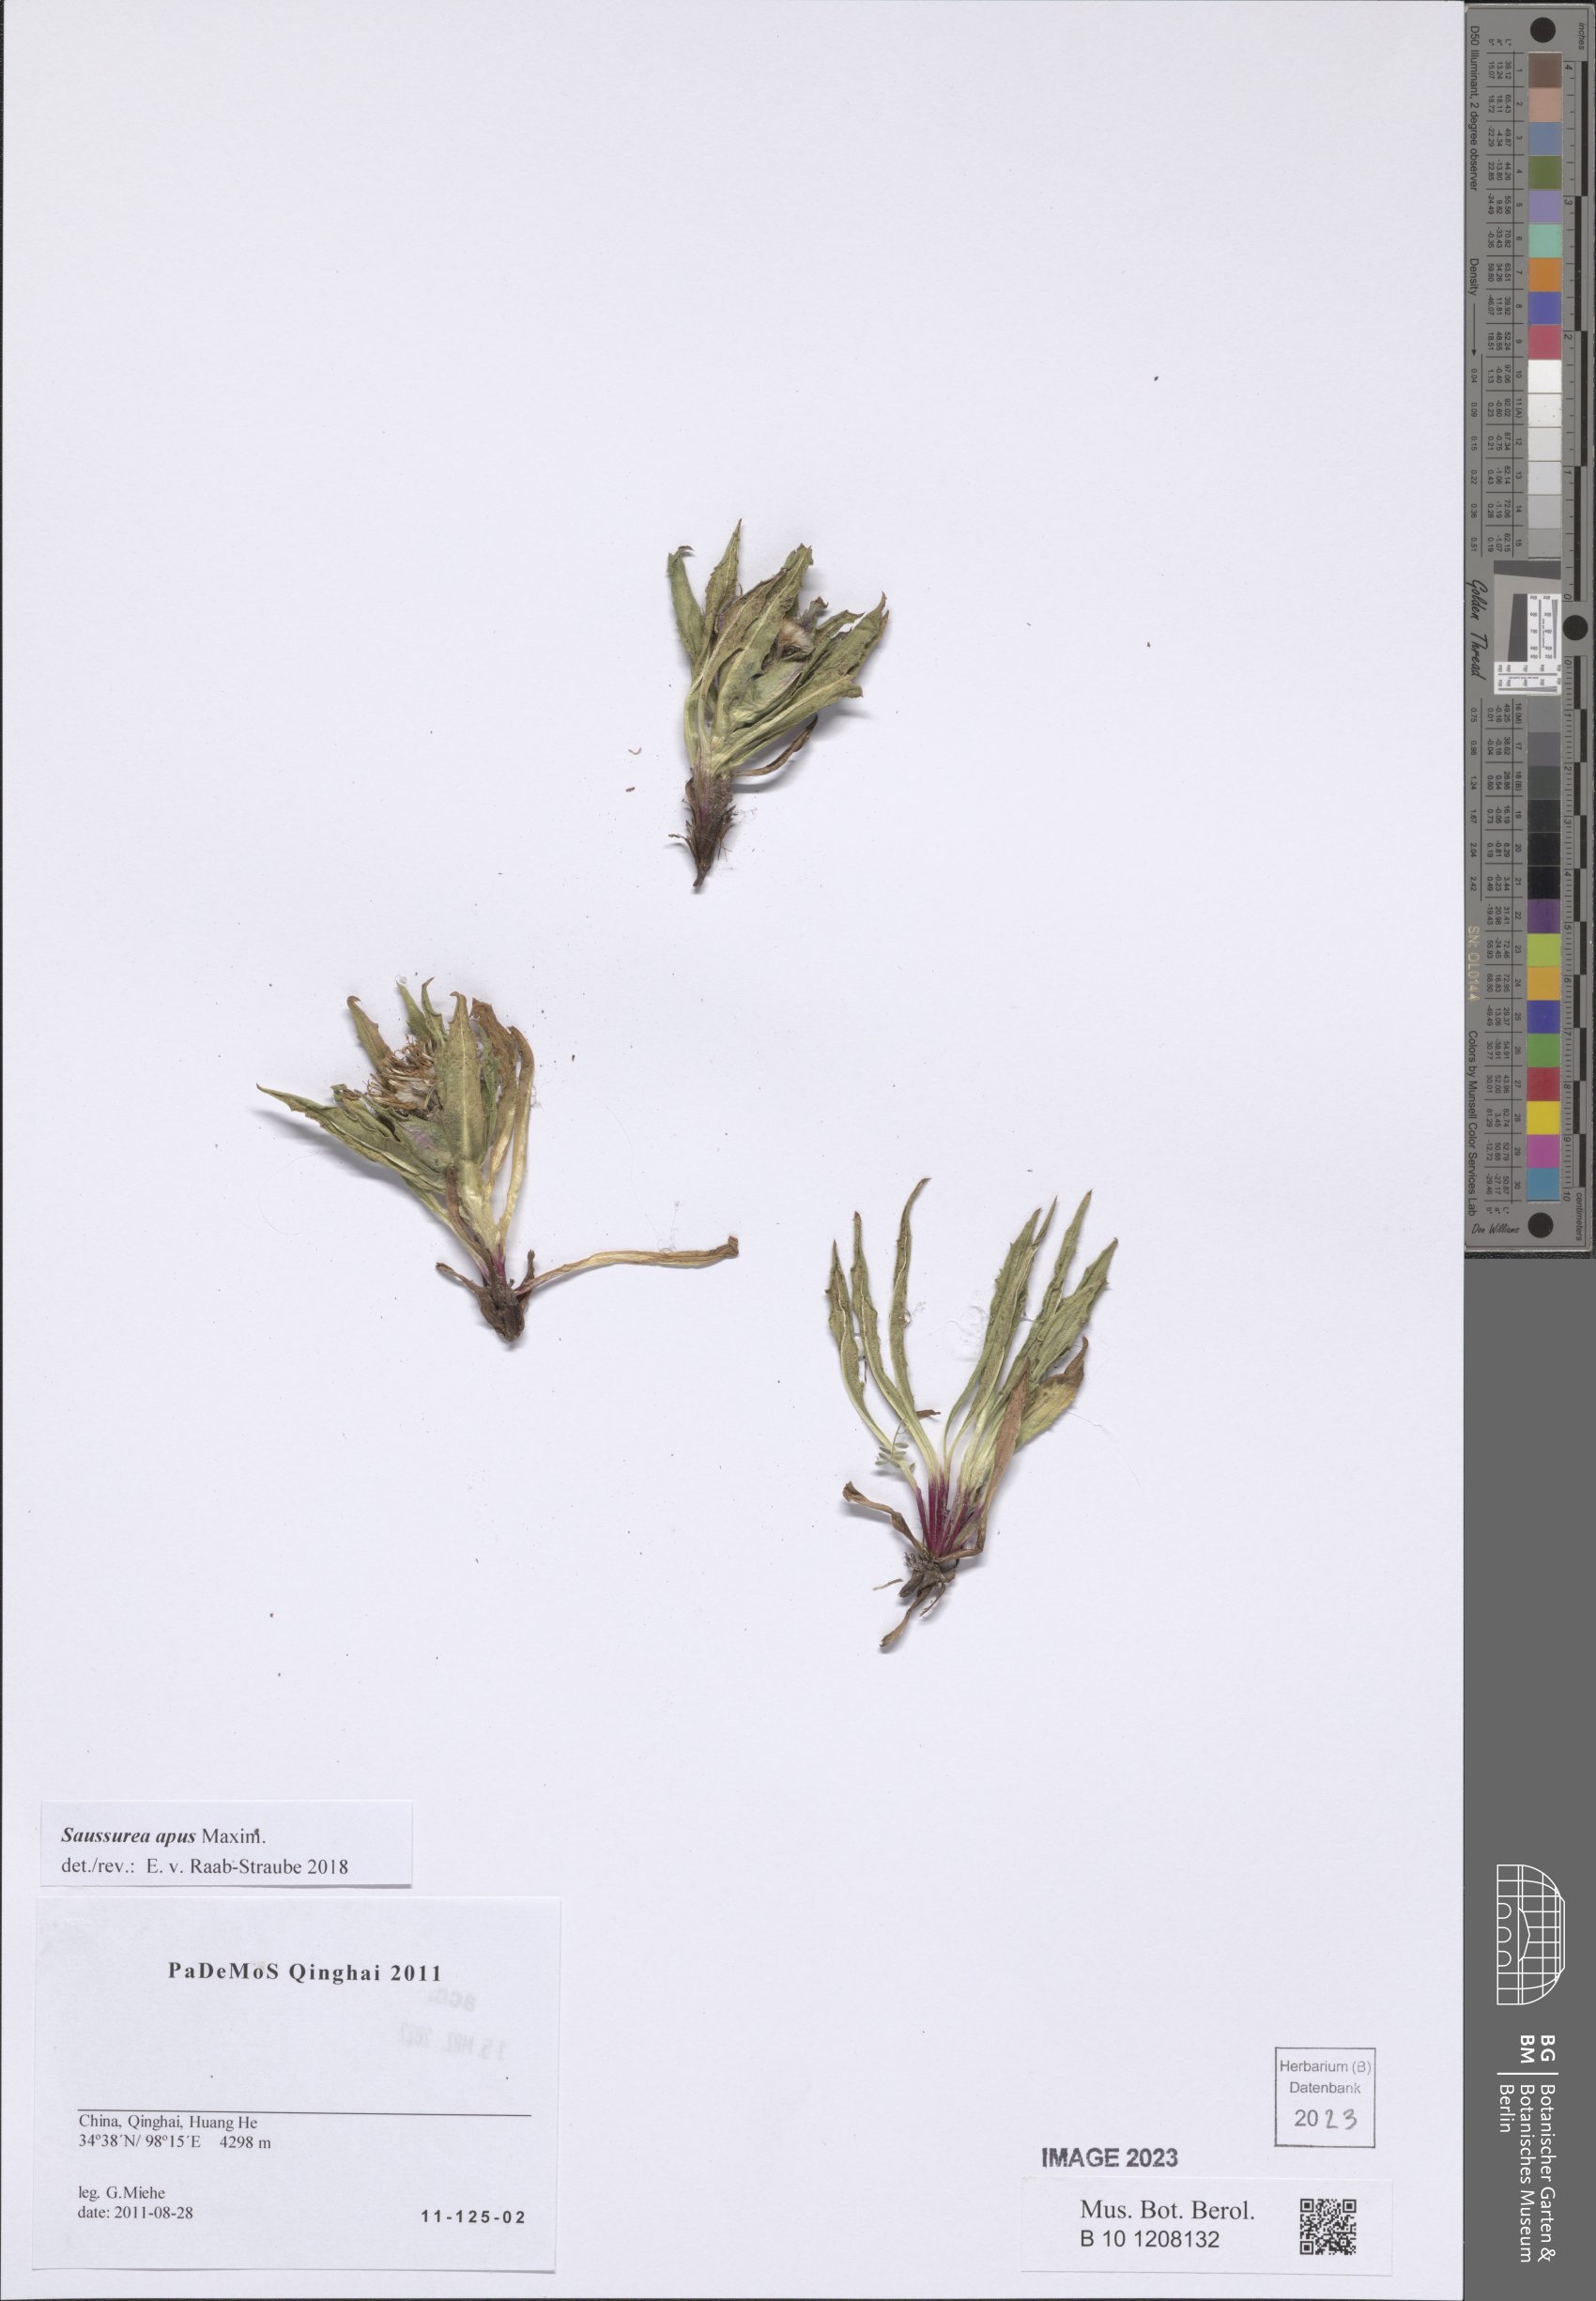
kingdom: Plantae
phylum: Tracheophyta
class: Magnoliopsida
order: Asterales
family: Asteraceae
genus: Saussurea
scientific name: Saussurea apus
